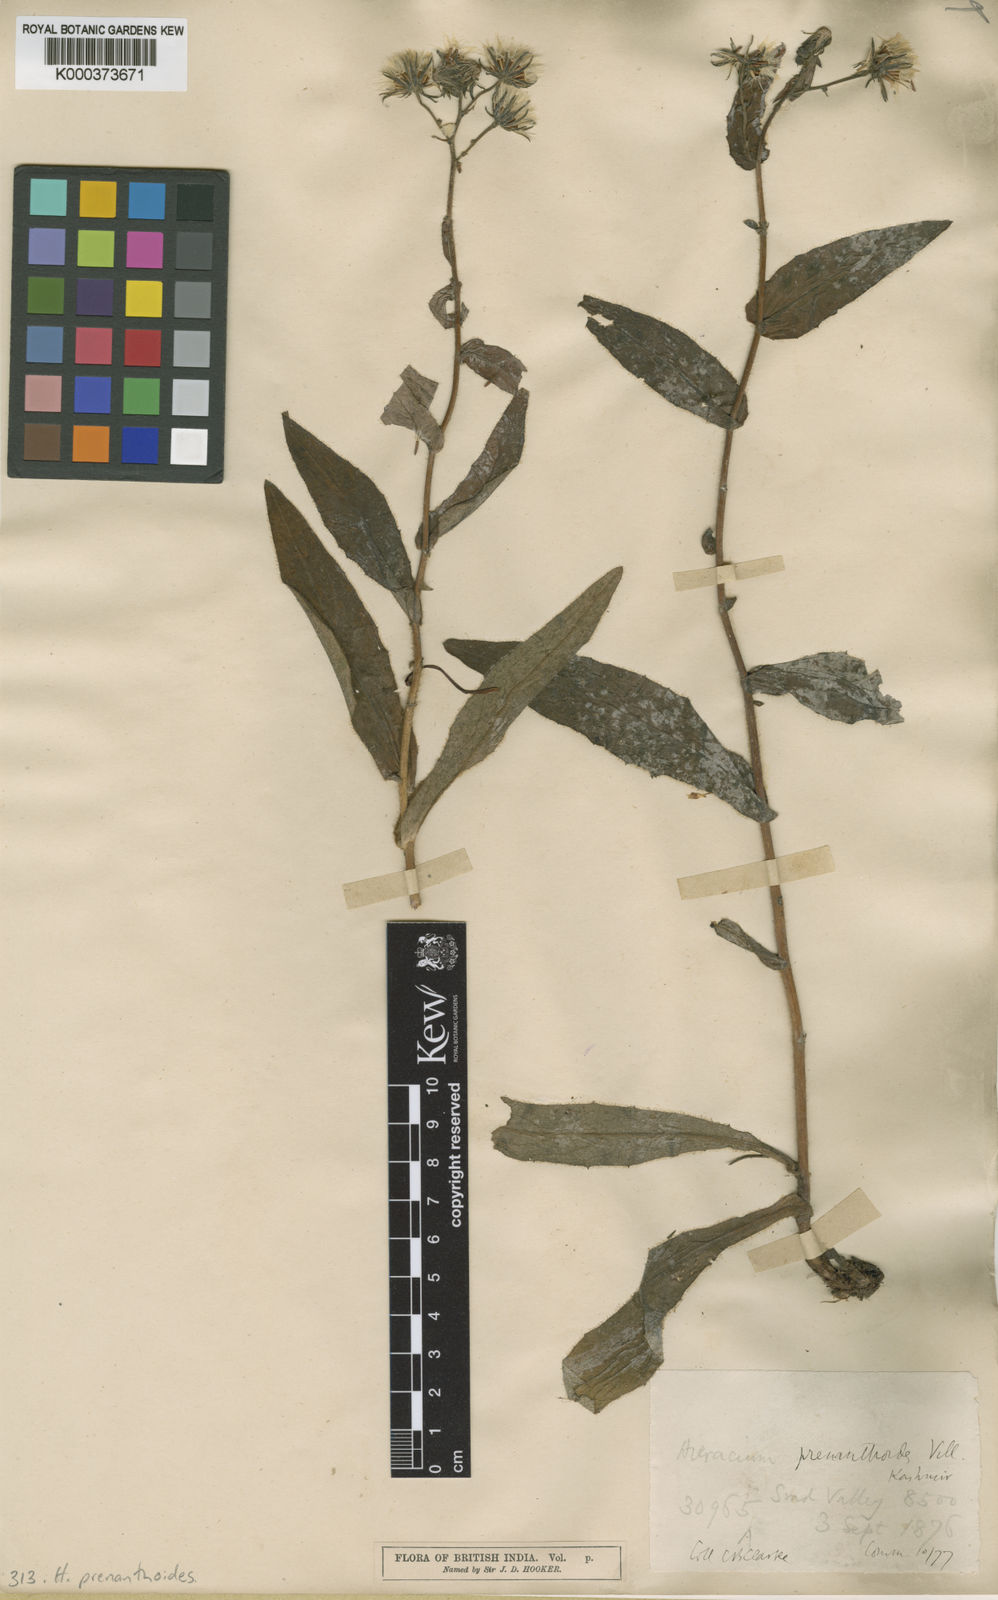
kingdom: Plantae
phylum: Tracheophyta
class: Magnoliopsida
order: Asterales
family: Asteraceae
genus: Hieracium
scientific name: Hieracium prenanthoides
